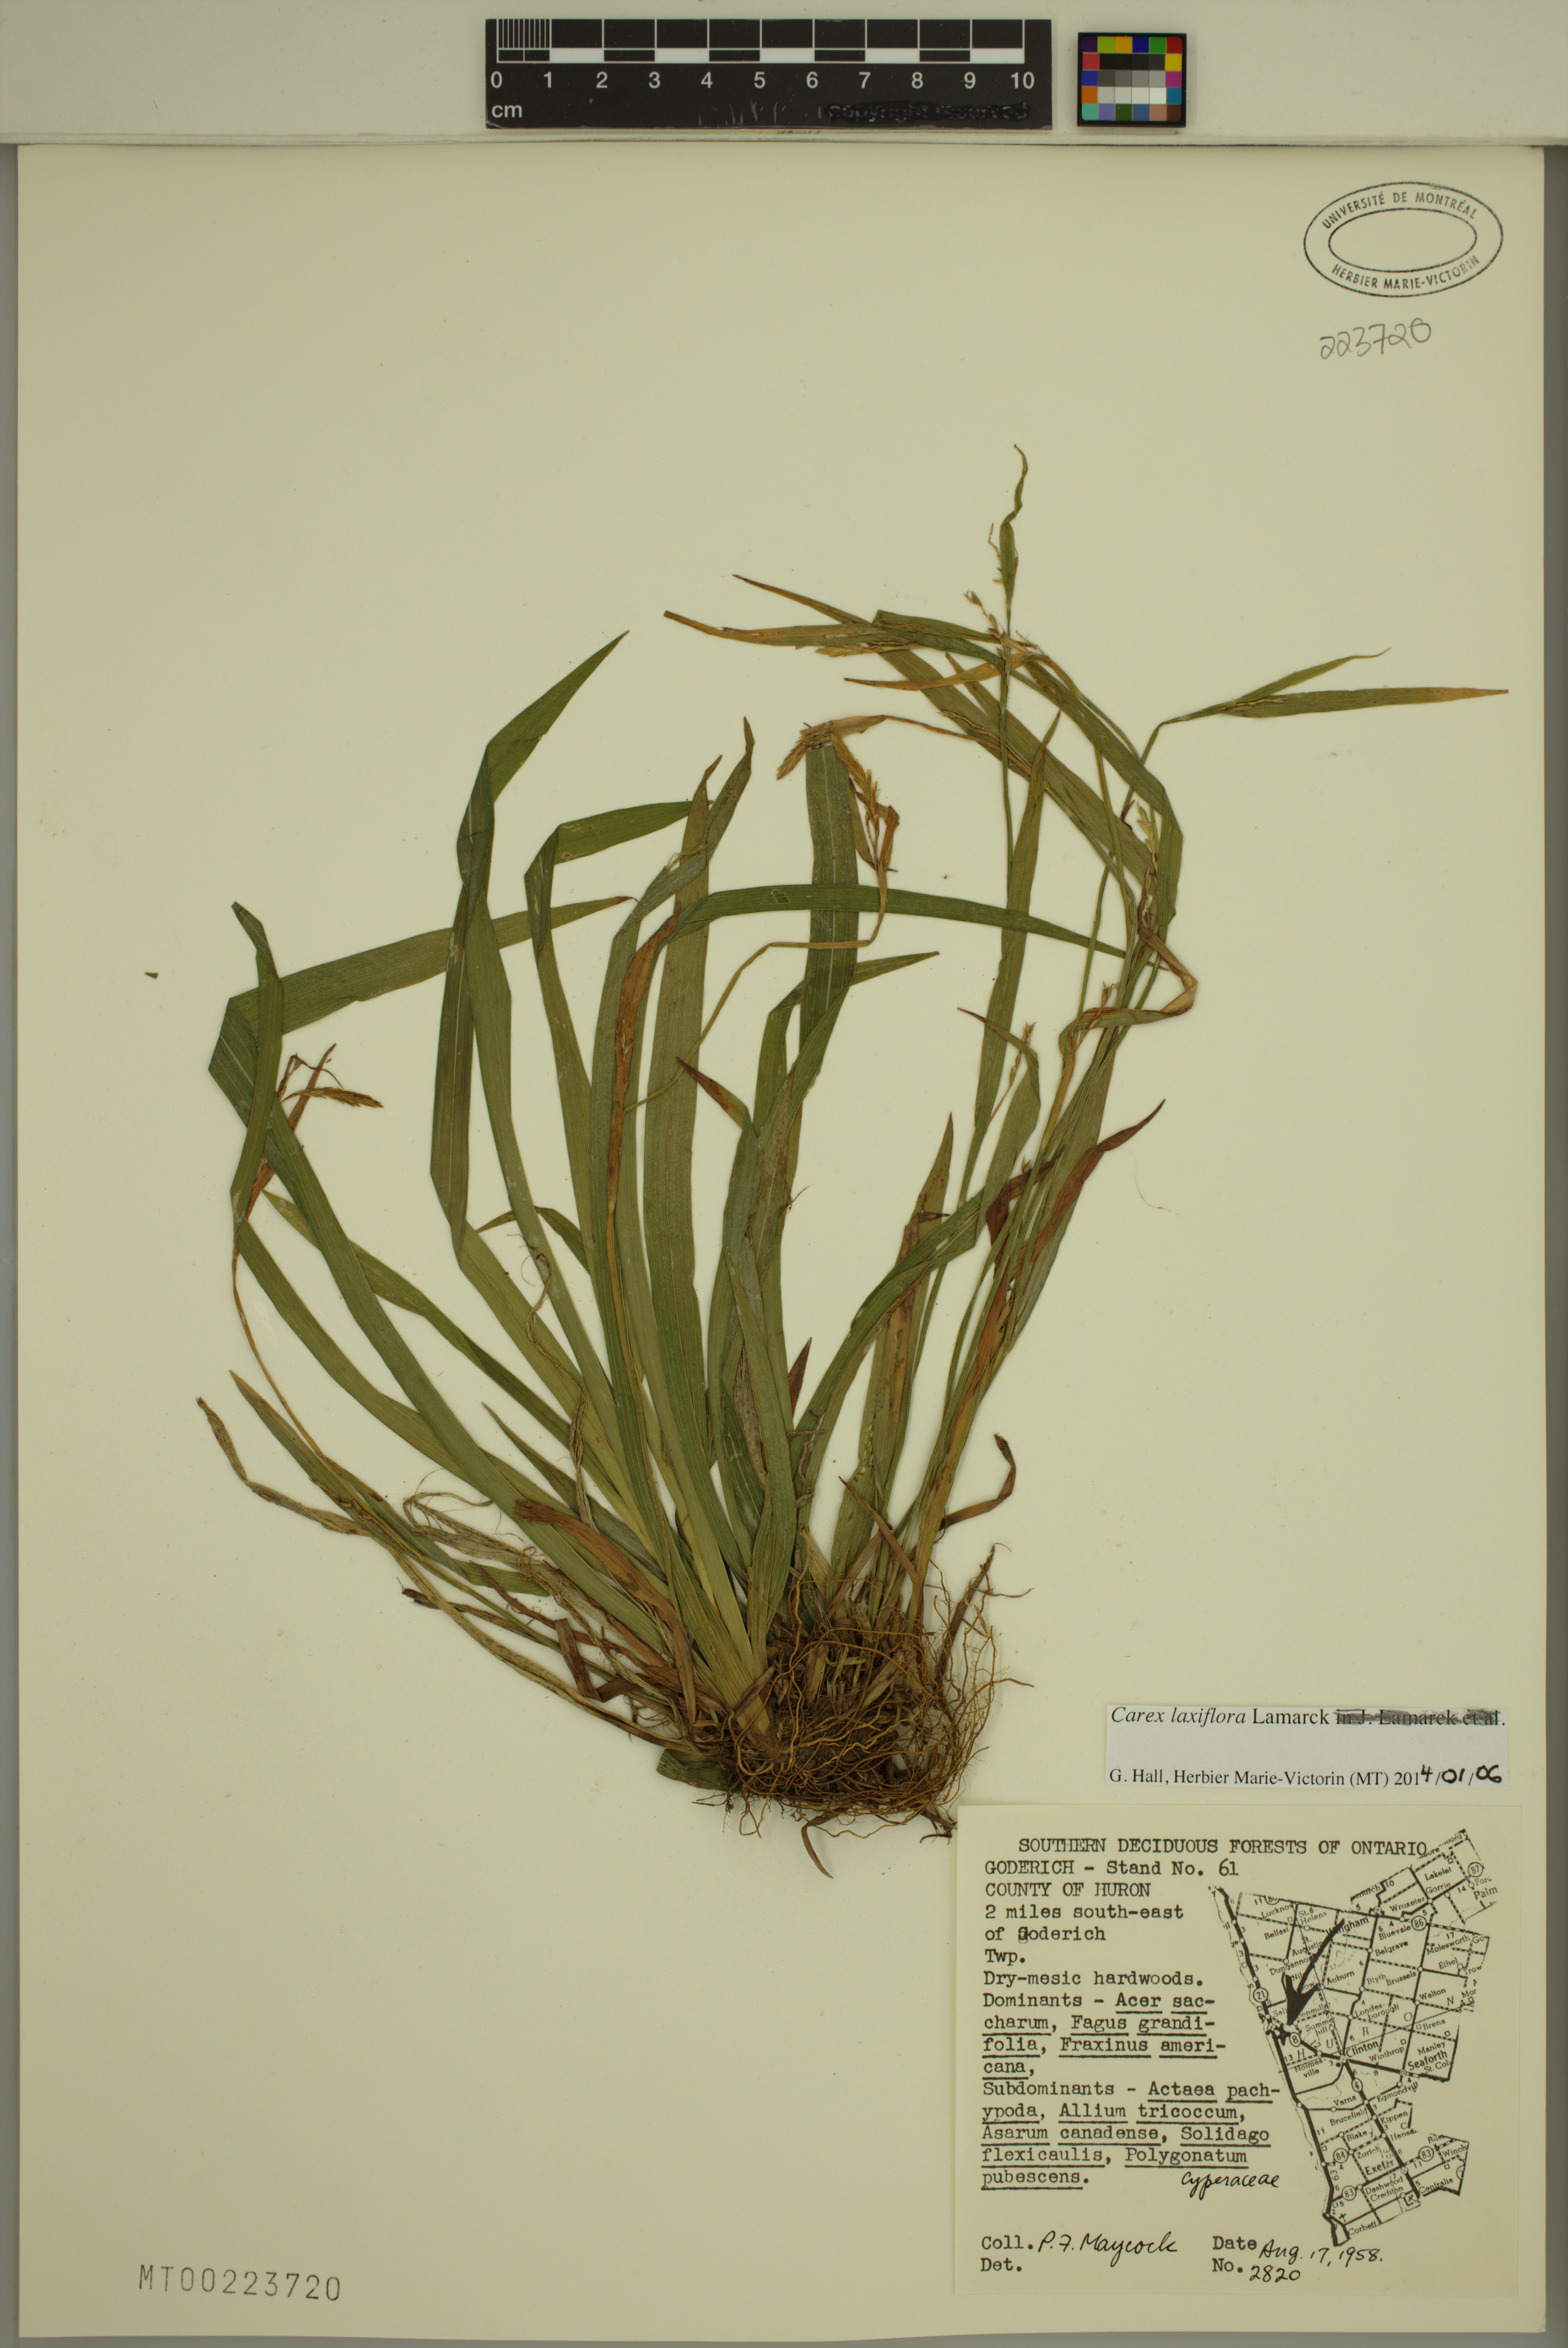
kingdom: Plantae
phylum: Tracheophyta
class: Liliopsida
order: Poales
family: Cyperaceae
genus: Carex
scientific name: Carex laxiflora
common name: Beech wood sedge
